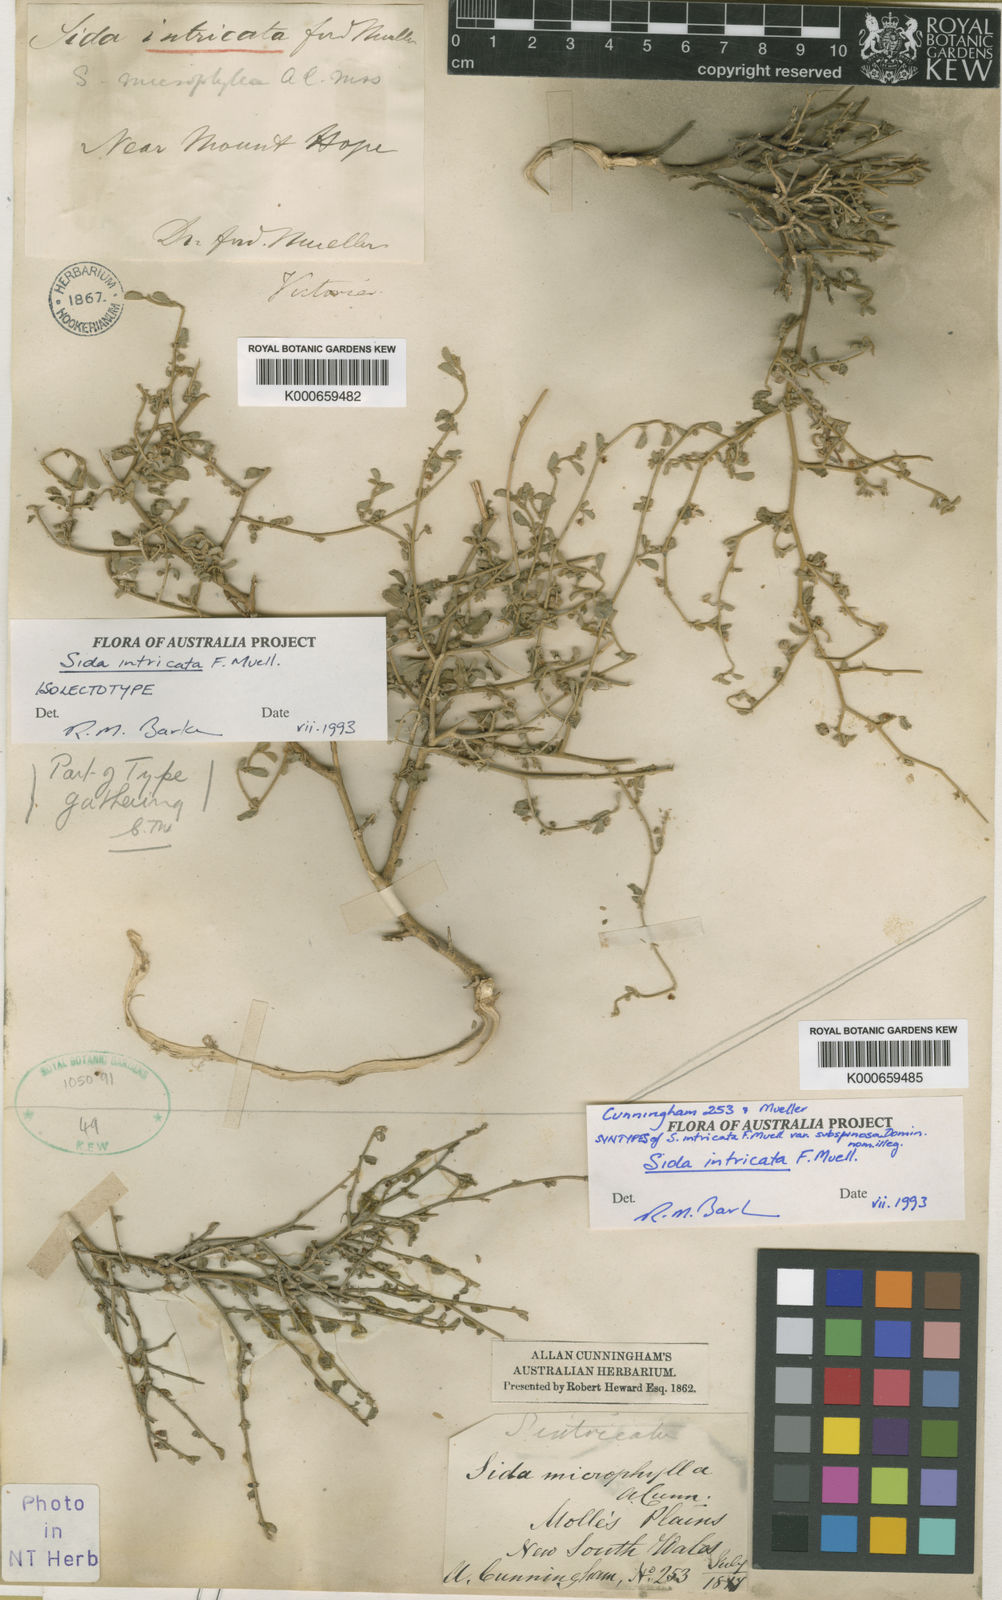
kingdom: Plantae
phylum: Tracheophyta
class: Magnoliopsida
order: Malvales
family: Malvaceae
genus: Sida
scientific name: Sida intricata
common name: Twiggy sida
